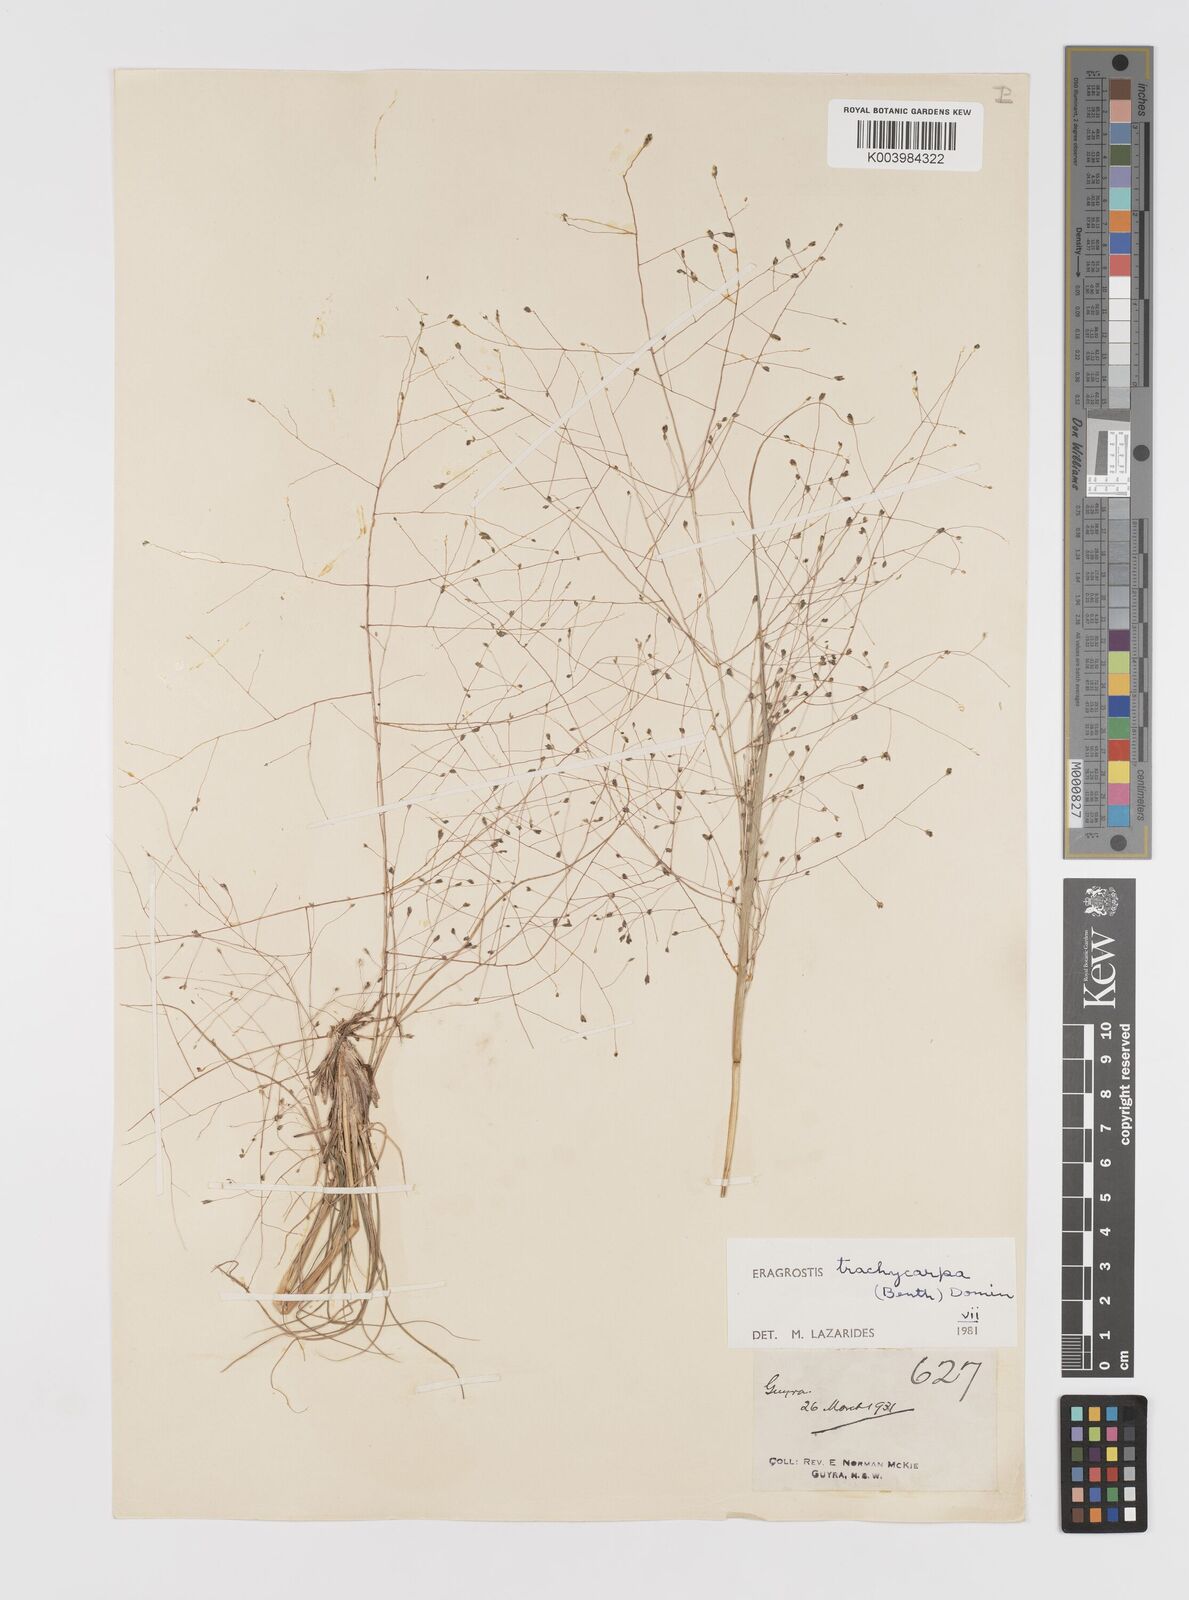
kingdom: Plantae
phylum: Tracheophyta
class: Liliopsida
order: Poales
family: Poaceae
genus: Eragrostis
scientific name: Eragrostis trachycarpa
